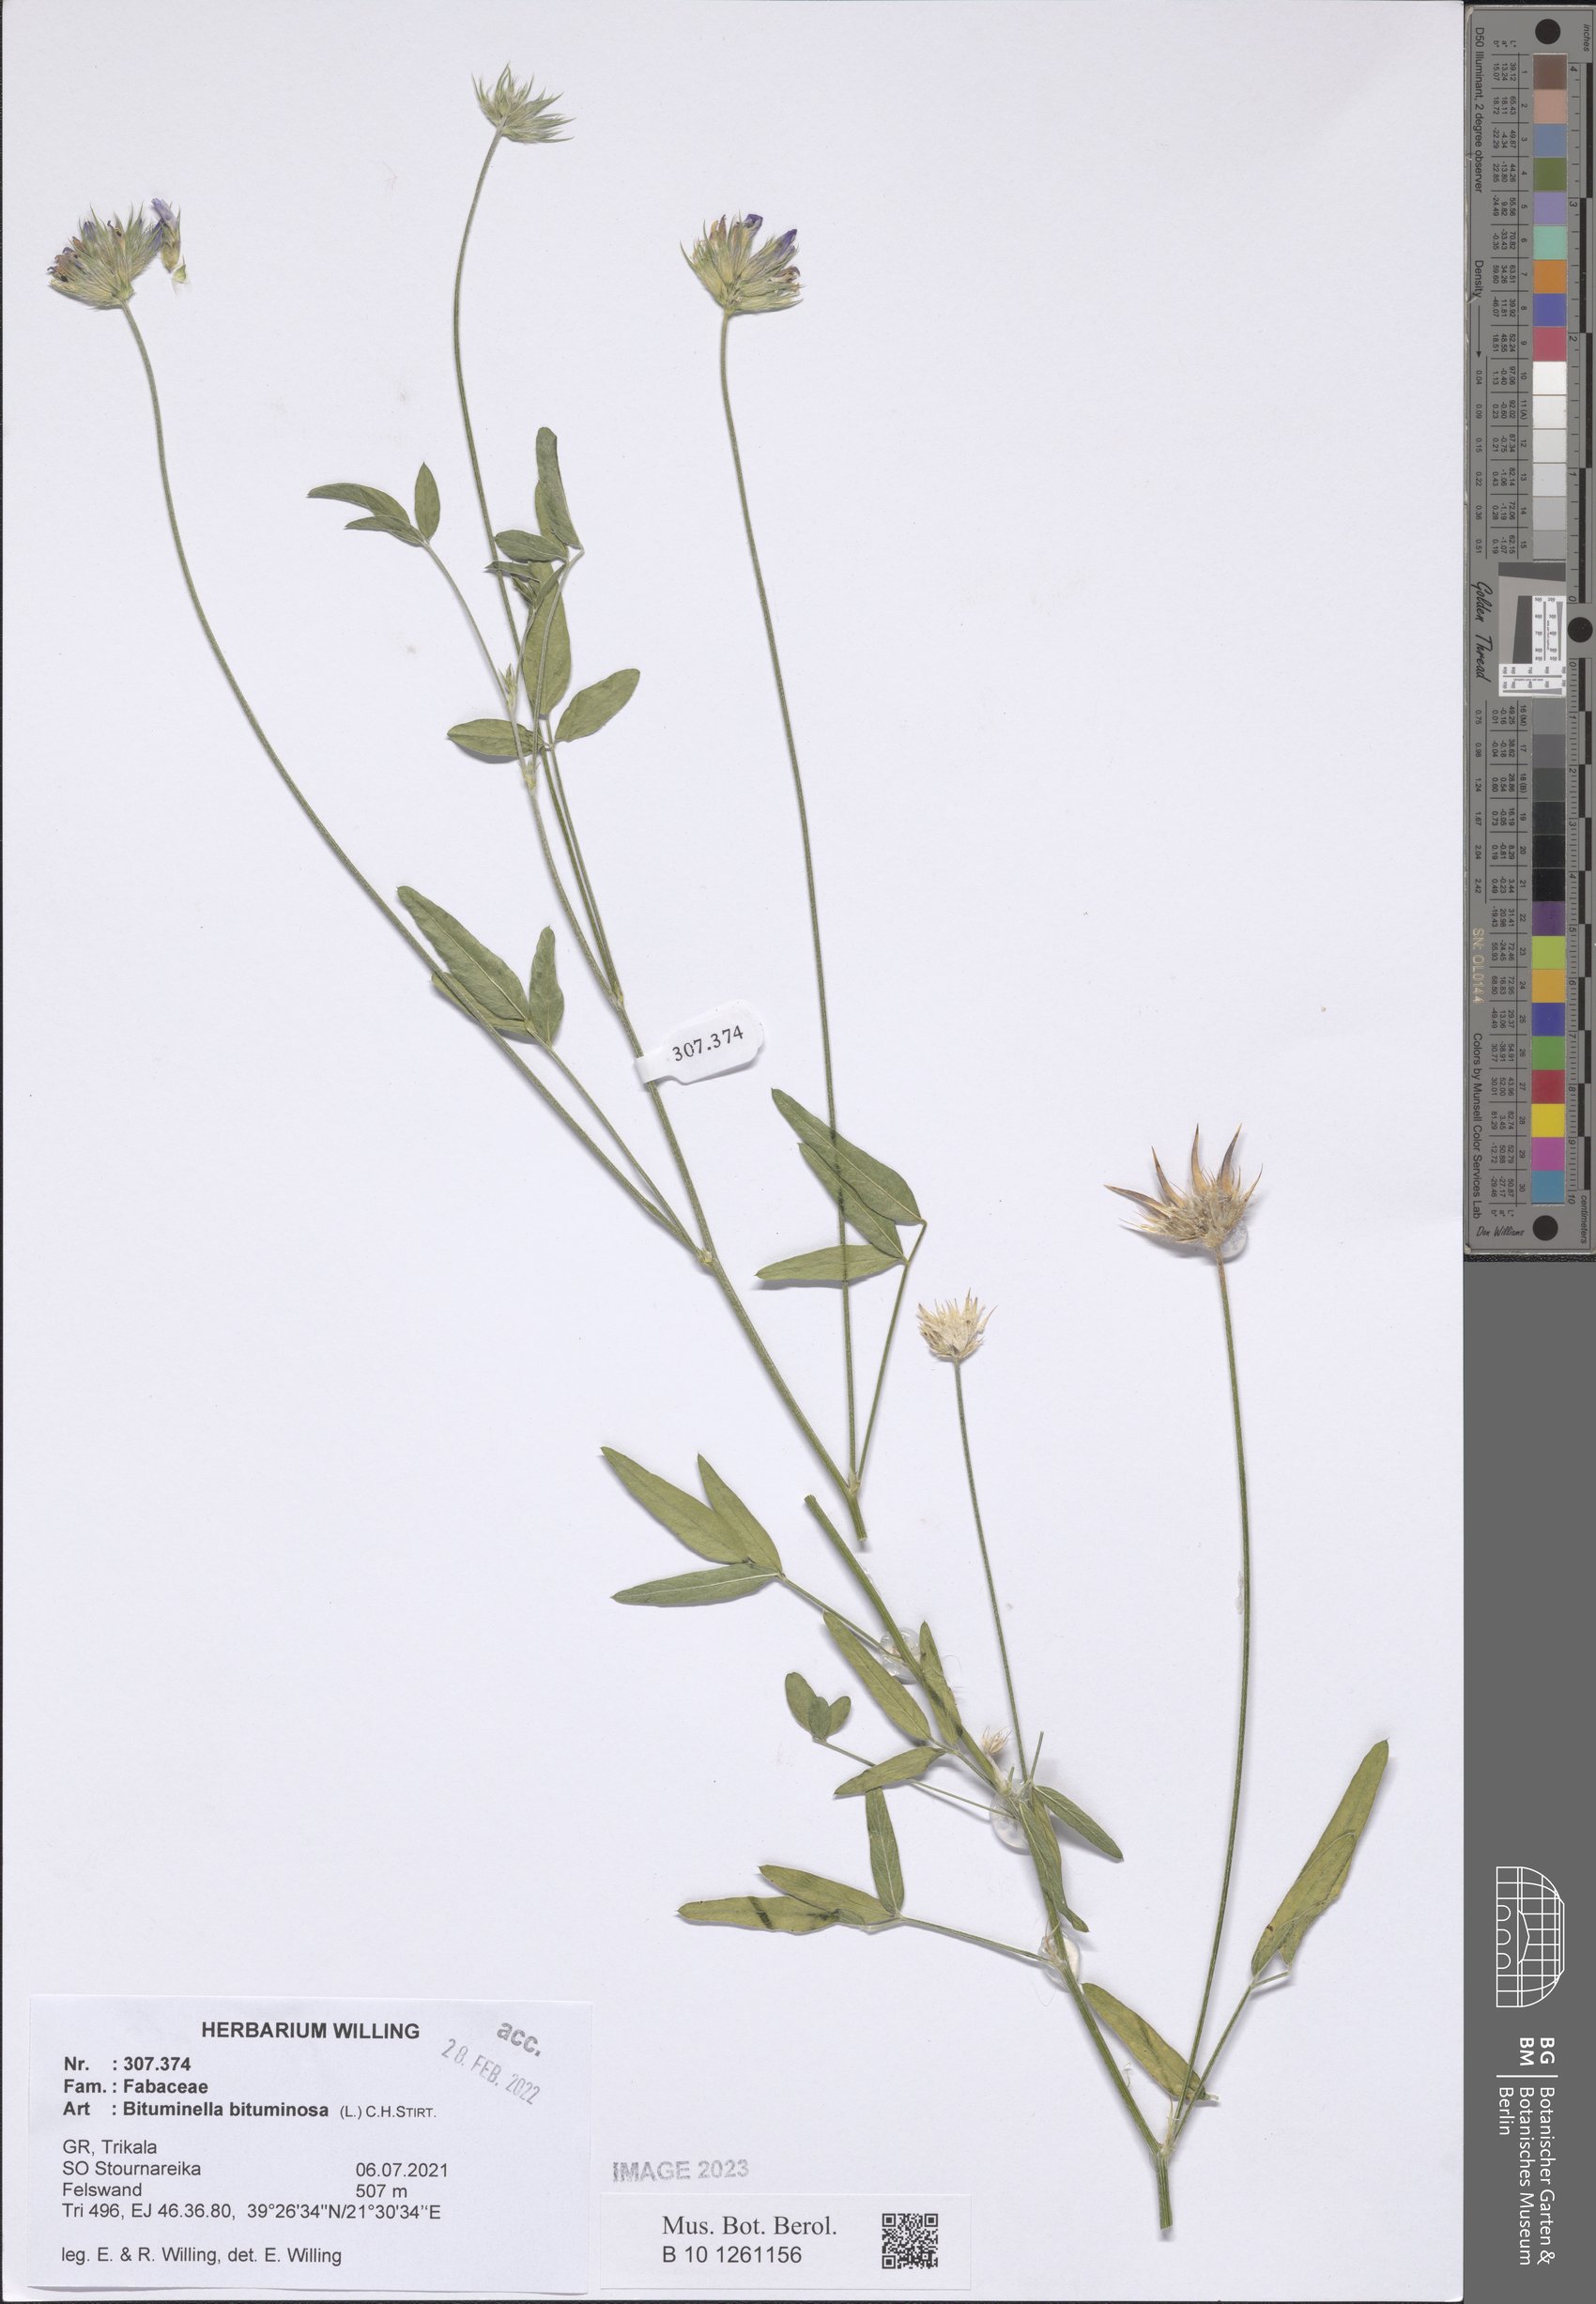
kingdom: Plantae
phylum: Tracheophyta
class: Magnoliopsida
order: Fabales
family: Fabaceae
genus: Bituminaria
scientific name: Bituminaria bituminosa
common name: Arabian pea
